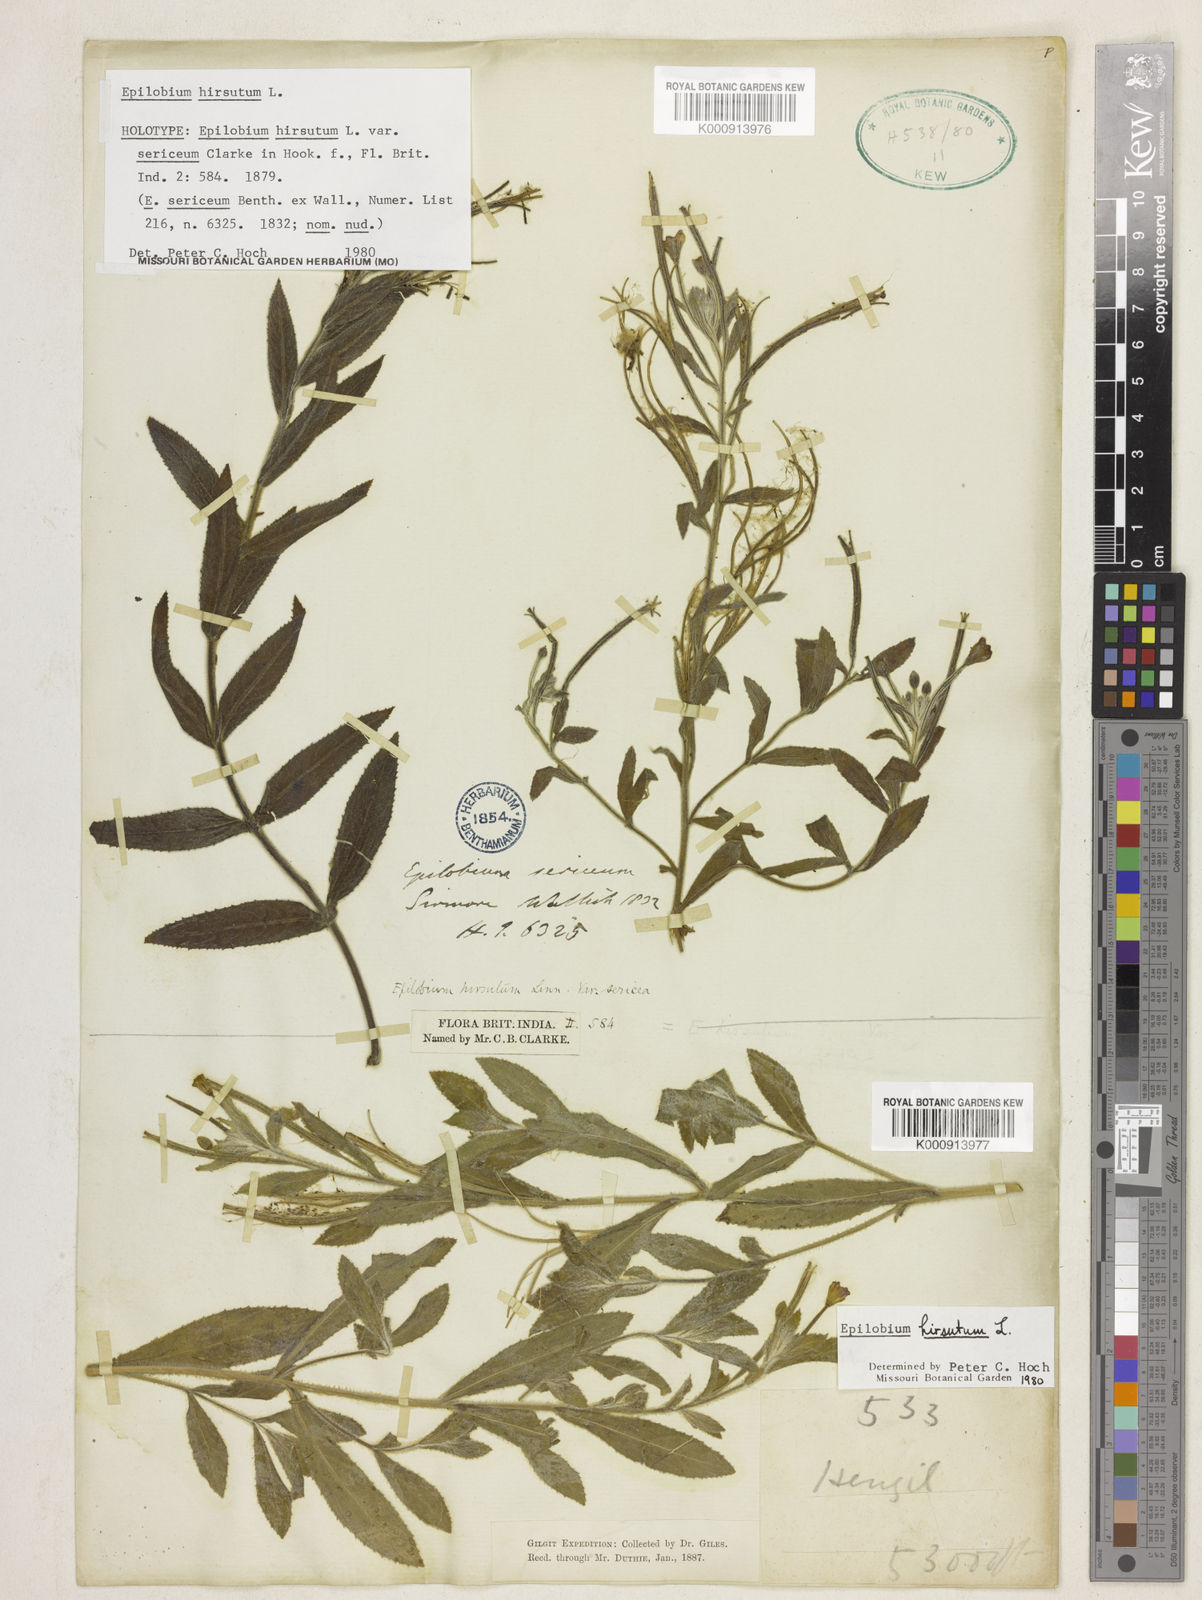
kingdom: Plantae
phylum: Tracheophyta
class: Magnoliopsida
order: Myrtales
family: Onagraceae
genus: Epilobium
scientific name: Epilobium hirsutum
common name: Great willowherb
